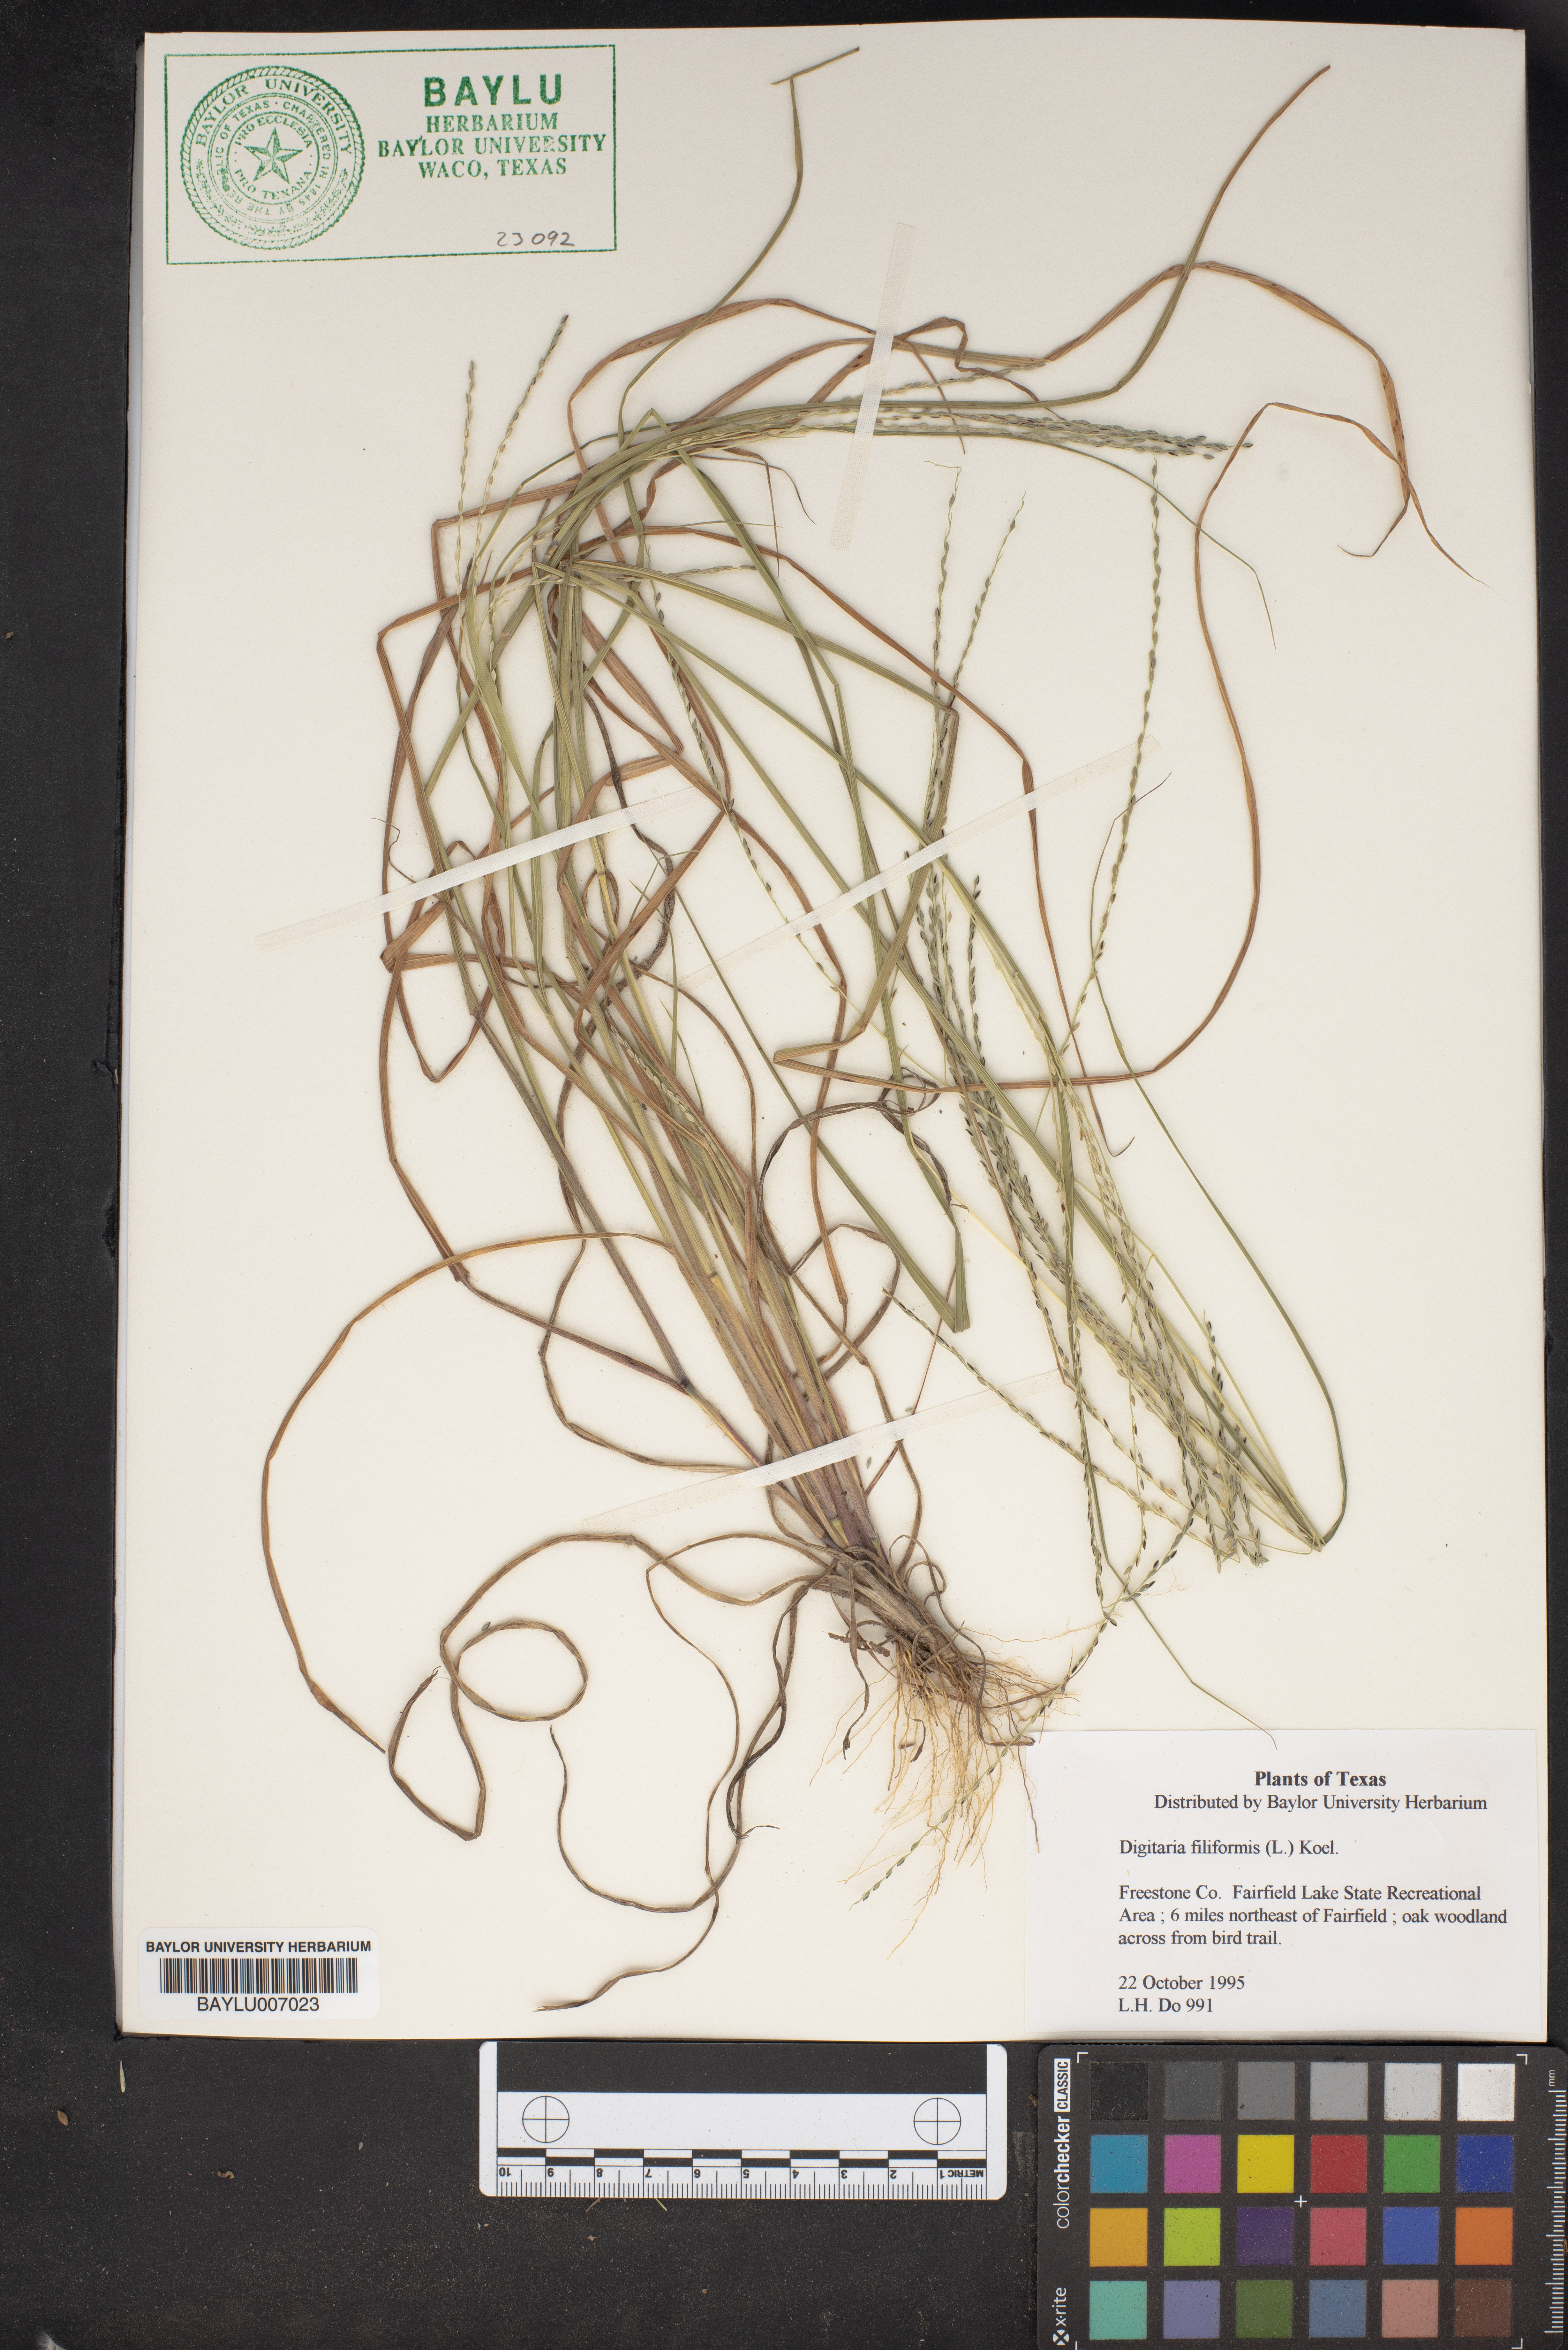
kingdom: Plantae
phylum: Tracheophyta
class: Liliopsida
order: Poales
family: Poaceae
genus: Digitaria
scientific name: Digitaria filiformis
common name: Slender crabgrass
